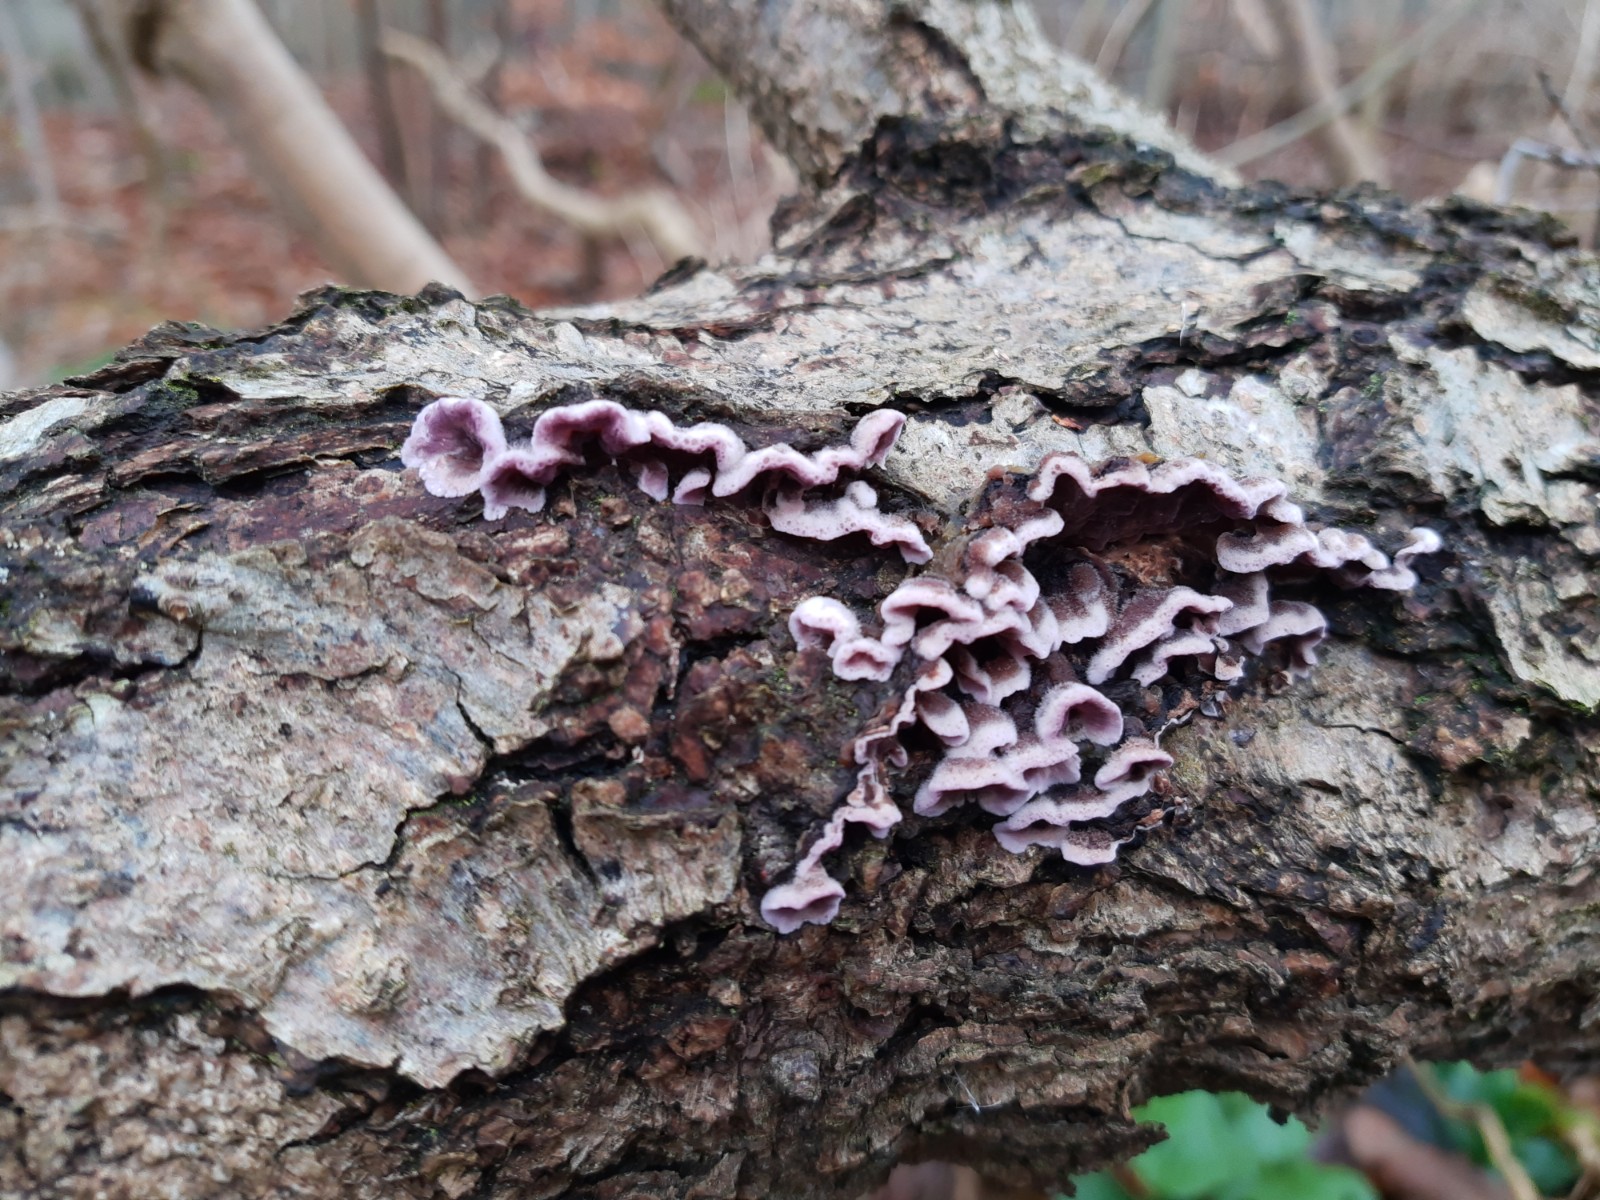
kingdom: Fungi
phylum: Basidiomycota
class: Agaricomycetes
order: Agaricales
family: Cyphellaceae
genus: Chondrostereum
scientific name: Chondrostereum purpureum
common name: purpurlædersvamp
